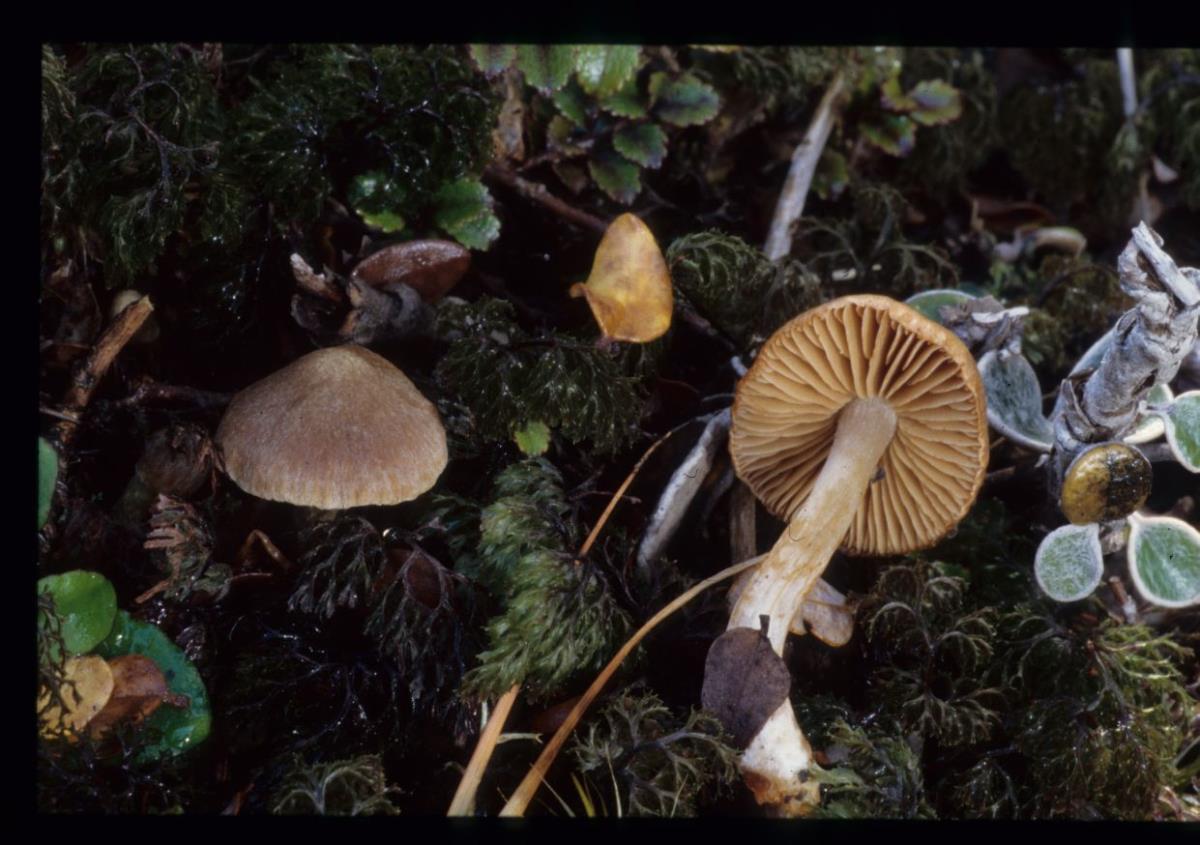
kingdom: Fungi
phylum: Basidiomycota
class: Agaricomycetes
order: Agaricales
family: Cortinariaceae
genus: Cortinarius
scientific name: Cortinarius
